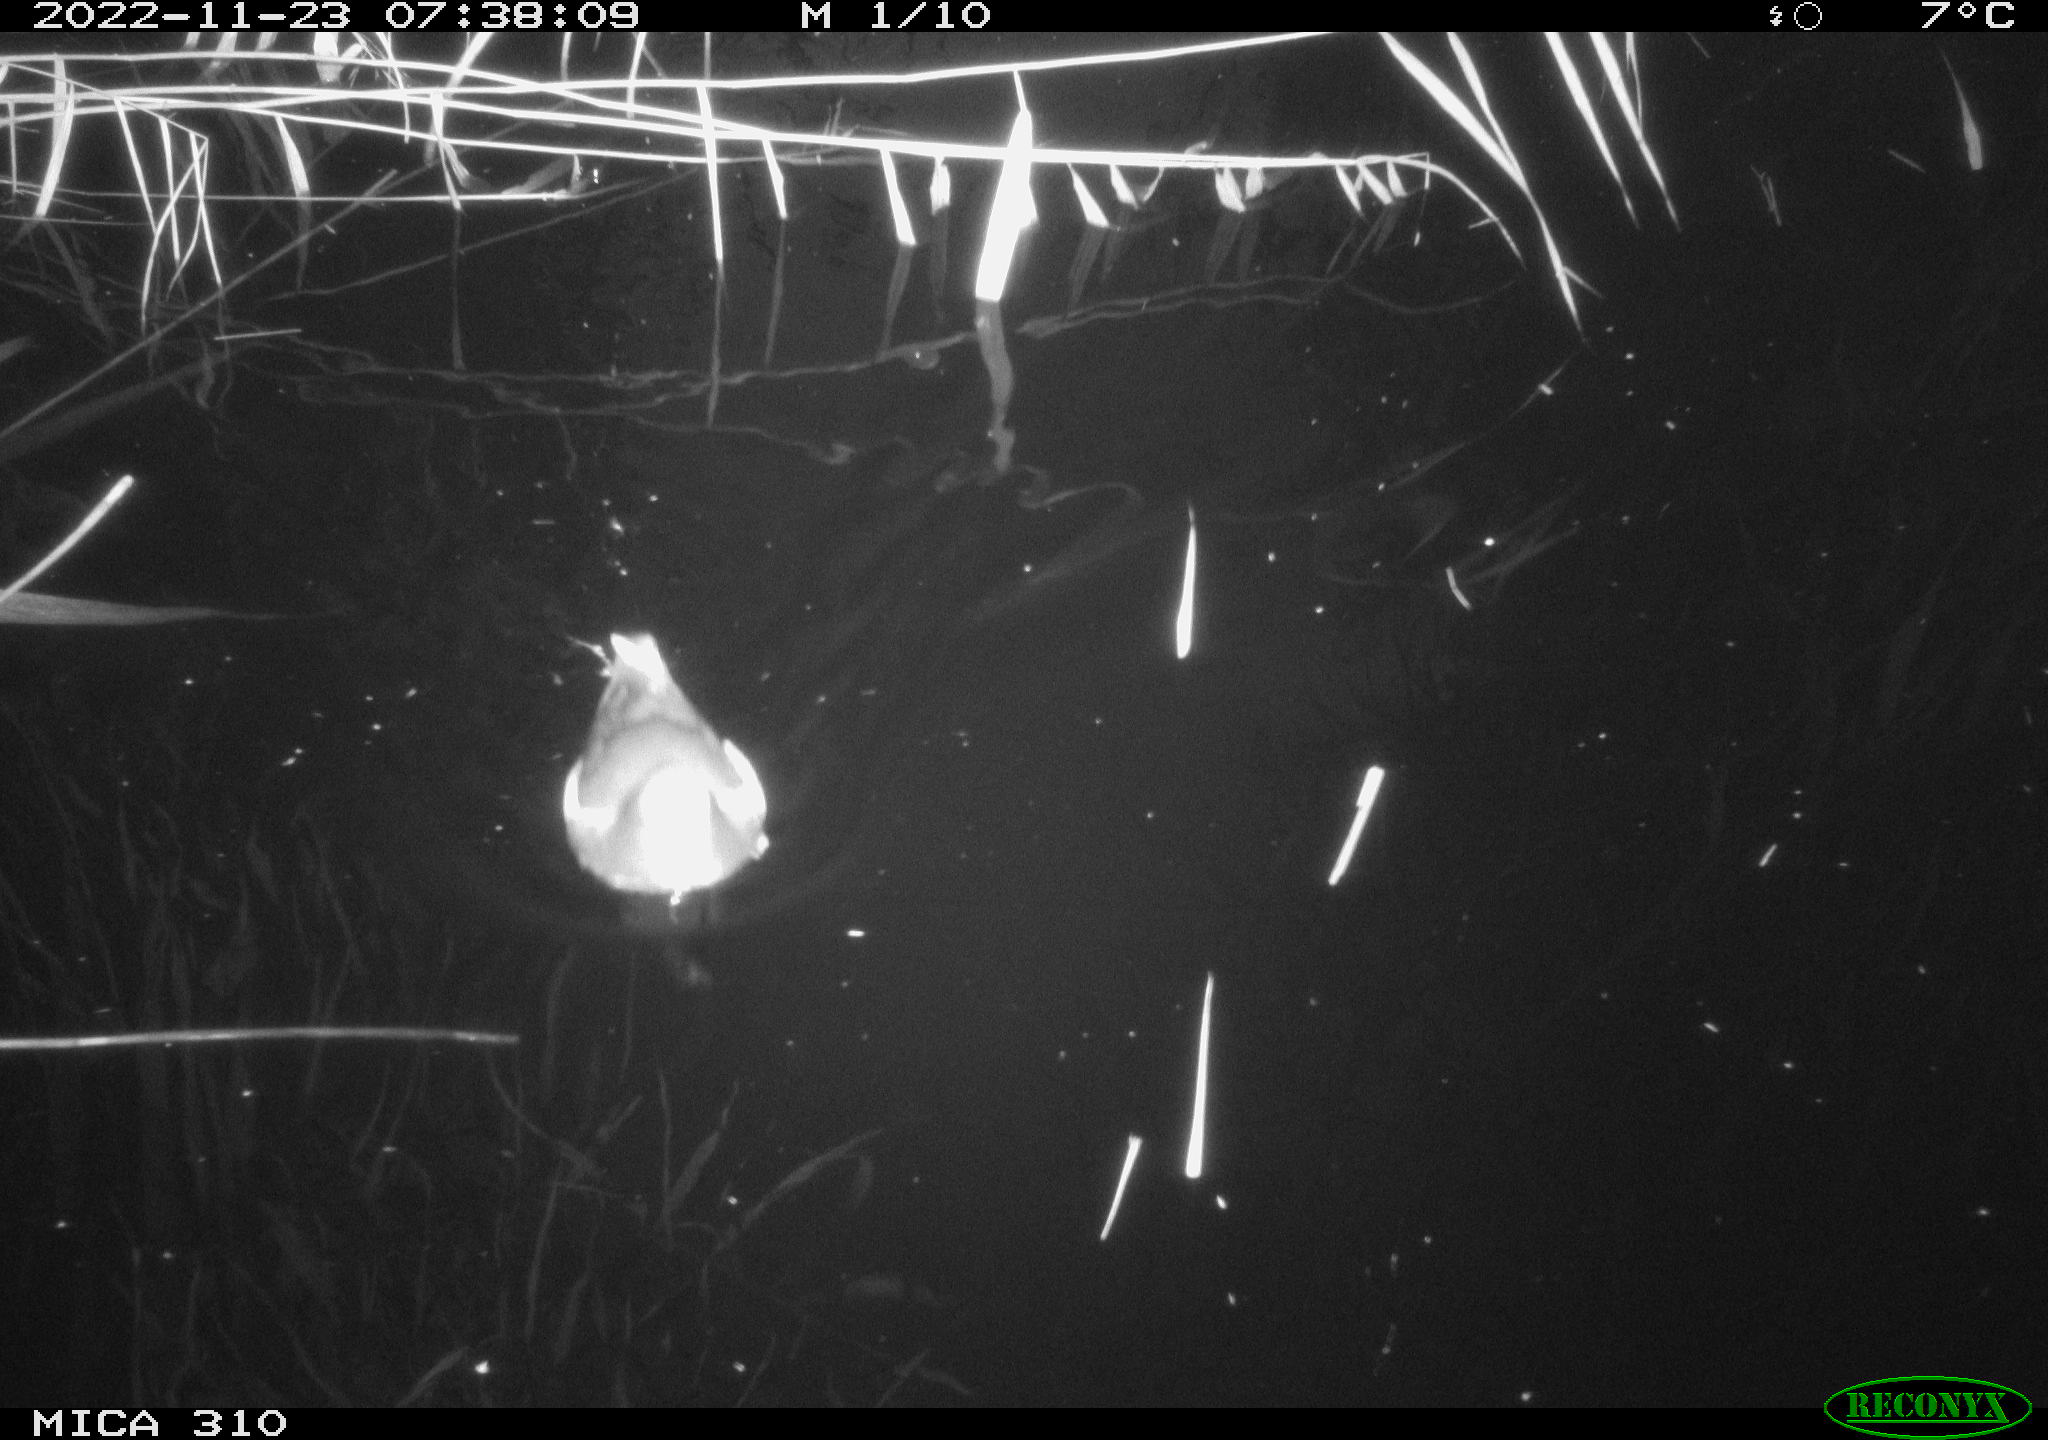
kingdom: Animalia
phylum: Chordata
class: Aves
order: Gruiformes
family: Rallidae
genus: Gallinula
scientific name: Gallinula chloropus
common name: Common moorhen
